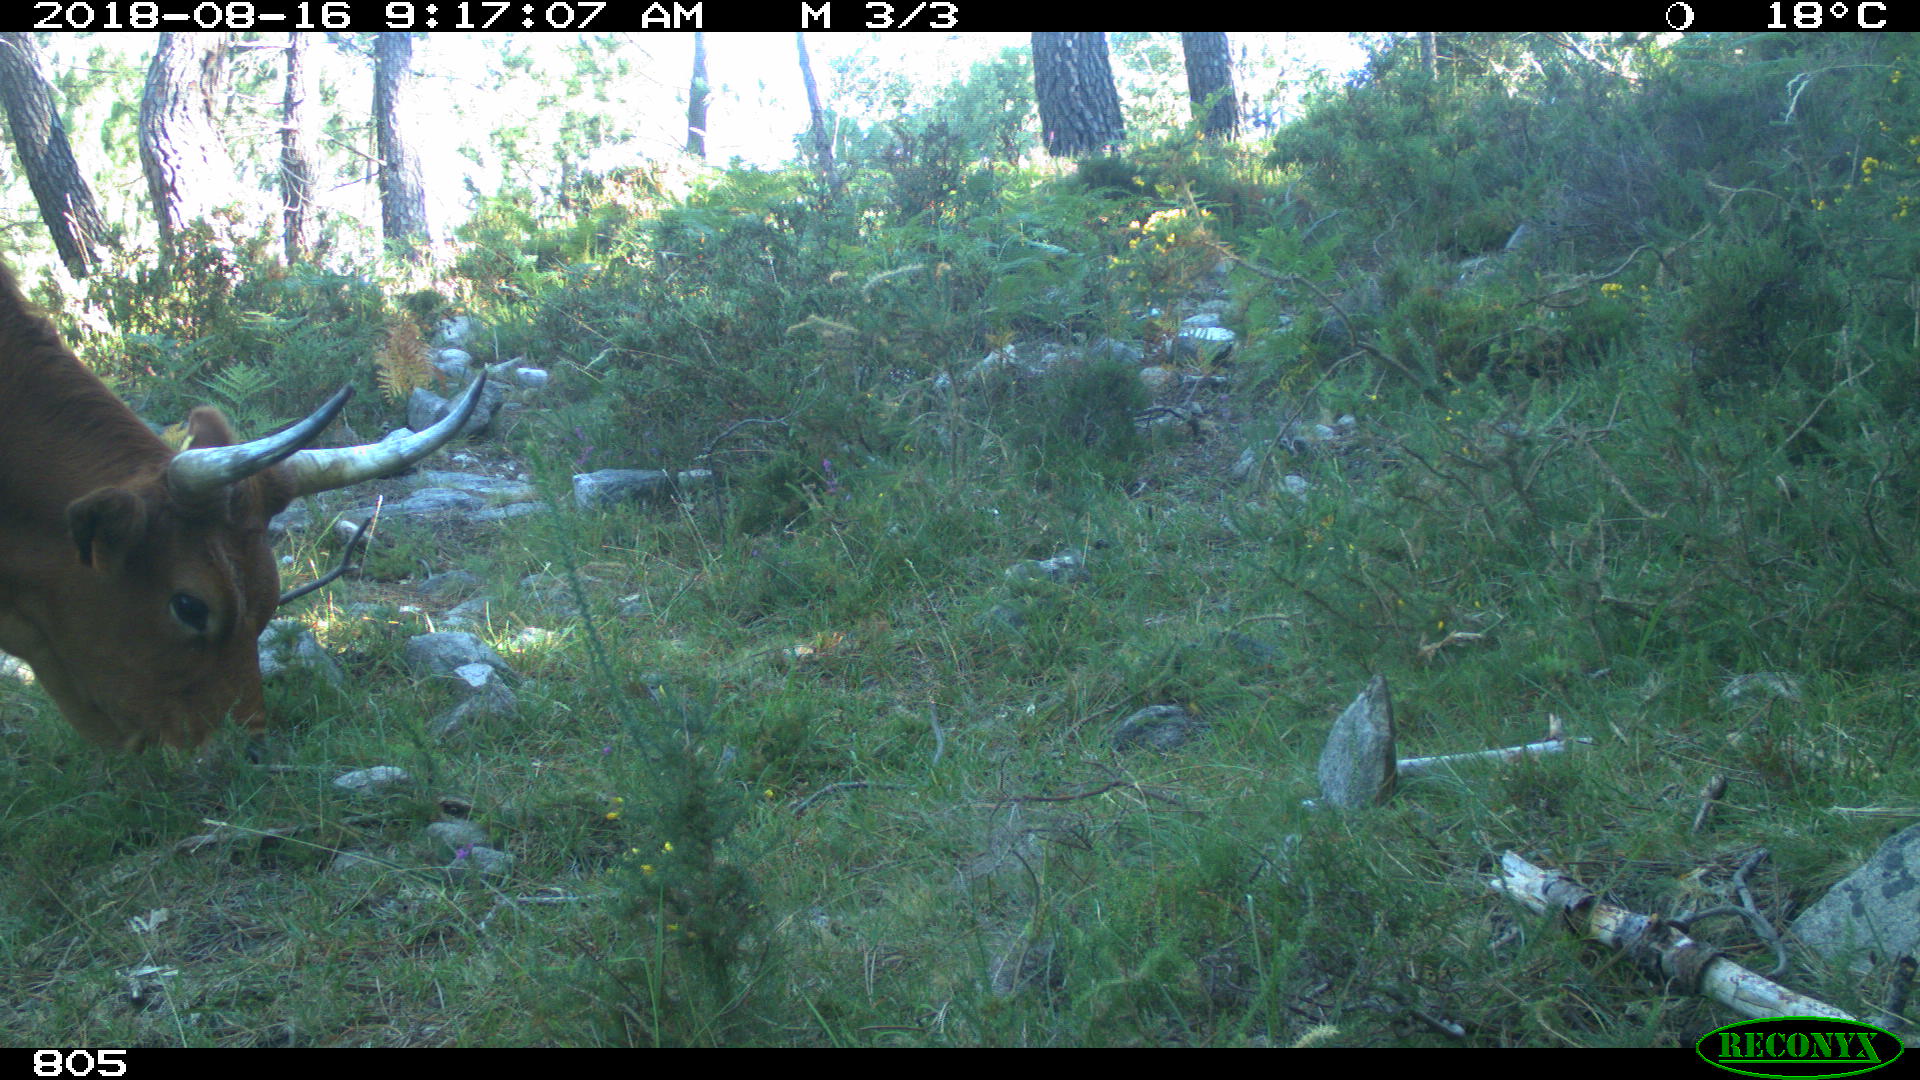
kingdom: Animalia
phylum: Chordata
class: Mammalia
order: Artiodactyla
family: Bovidae
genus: Bos
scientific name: Bos taurus
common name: Domesticated cattle
